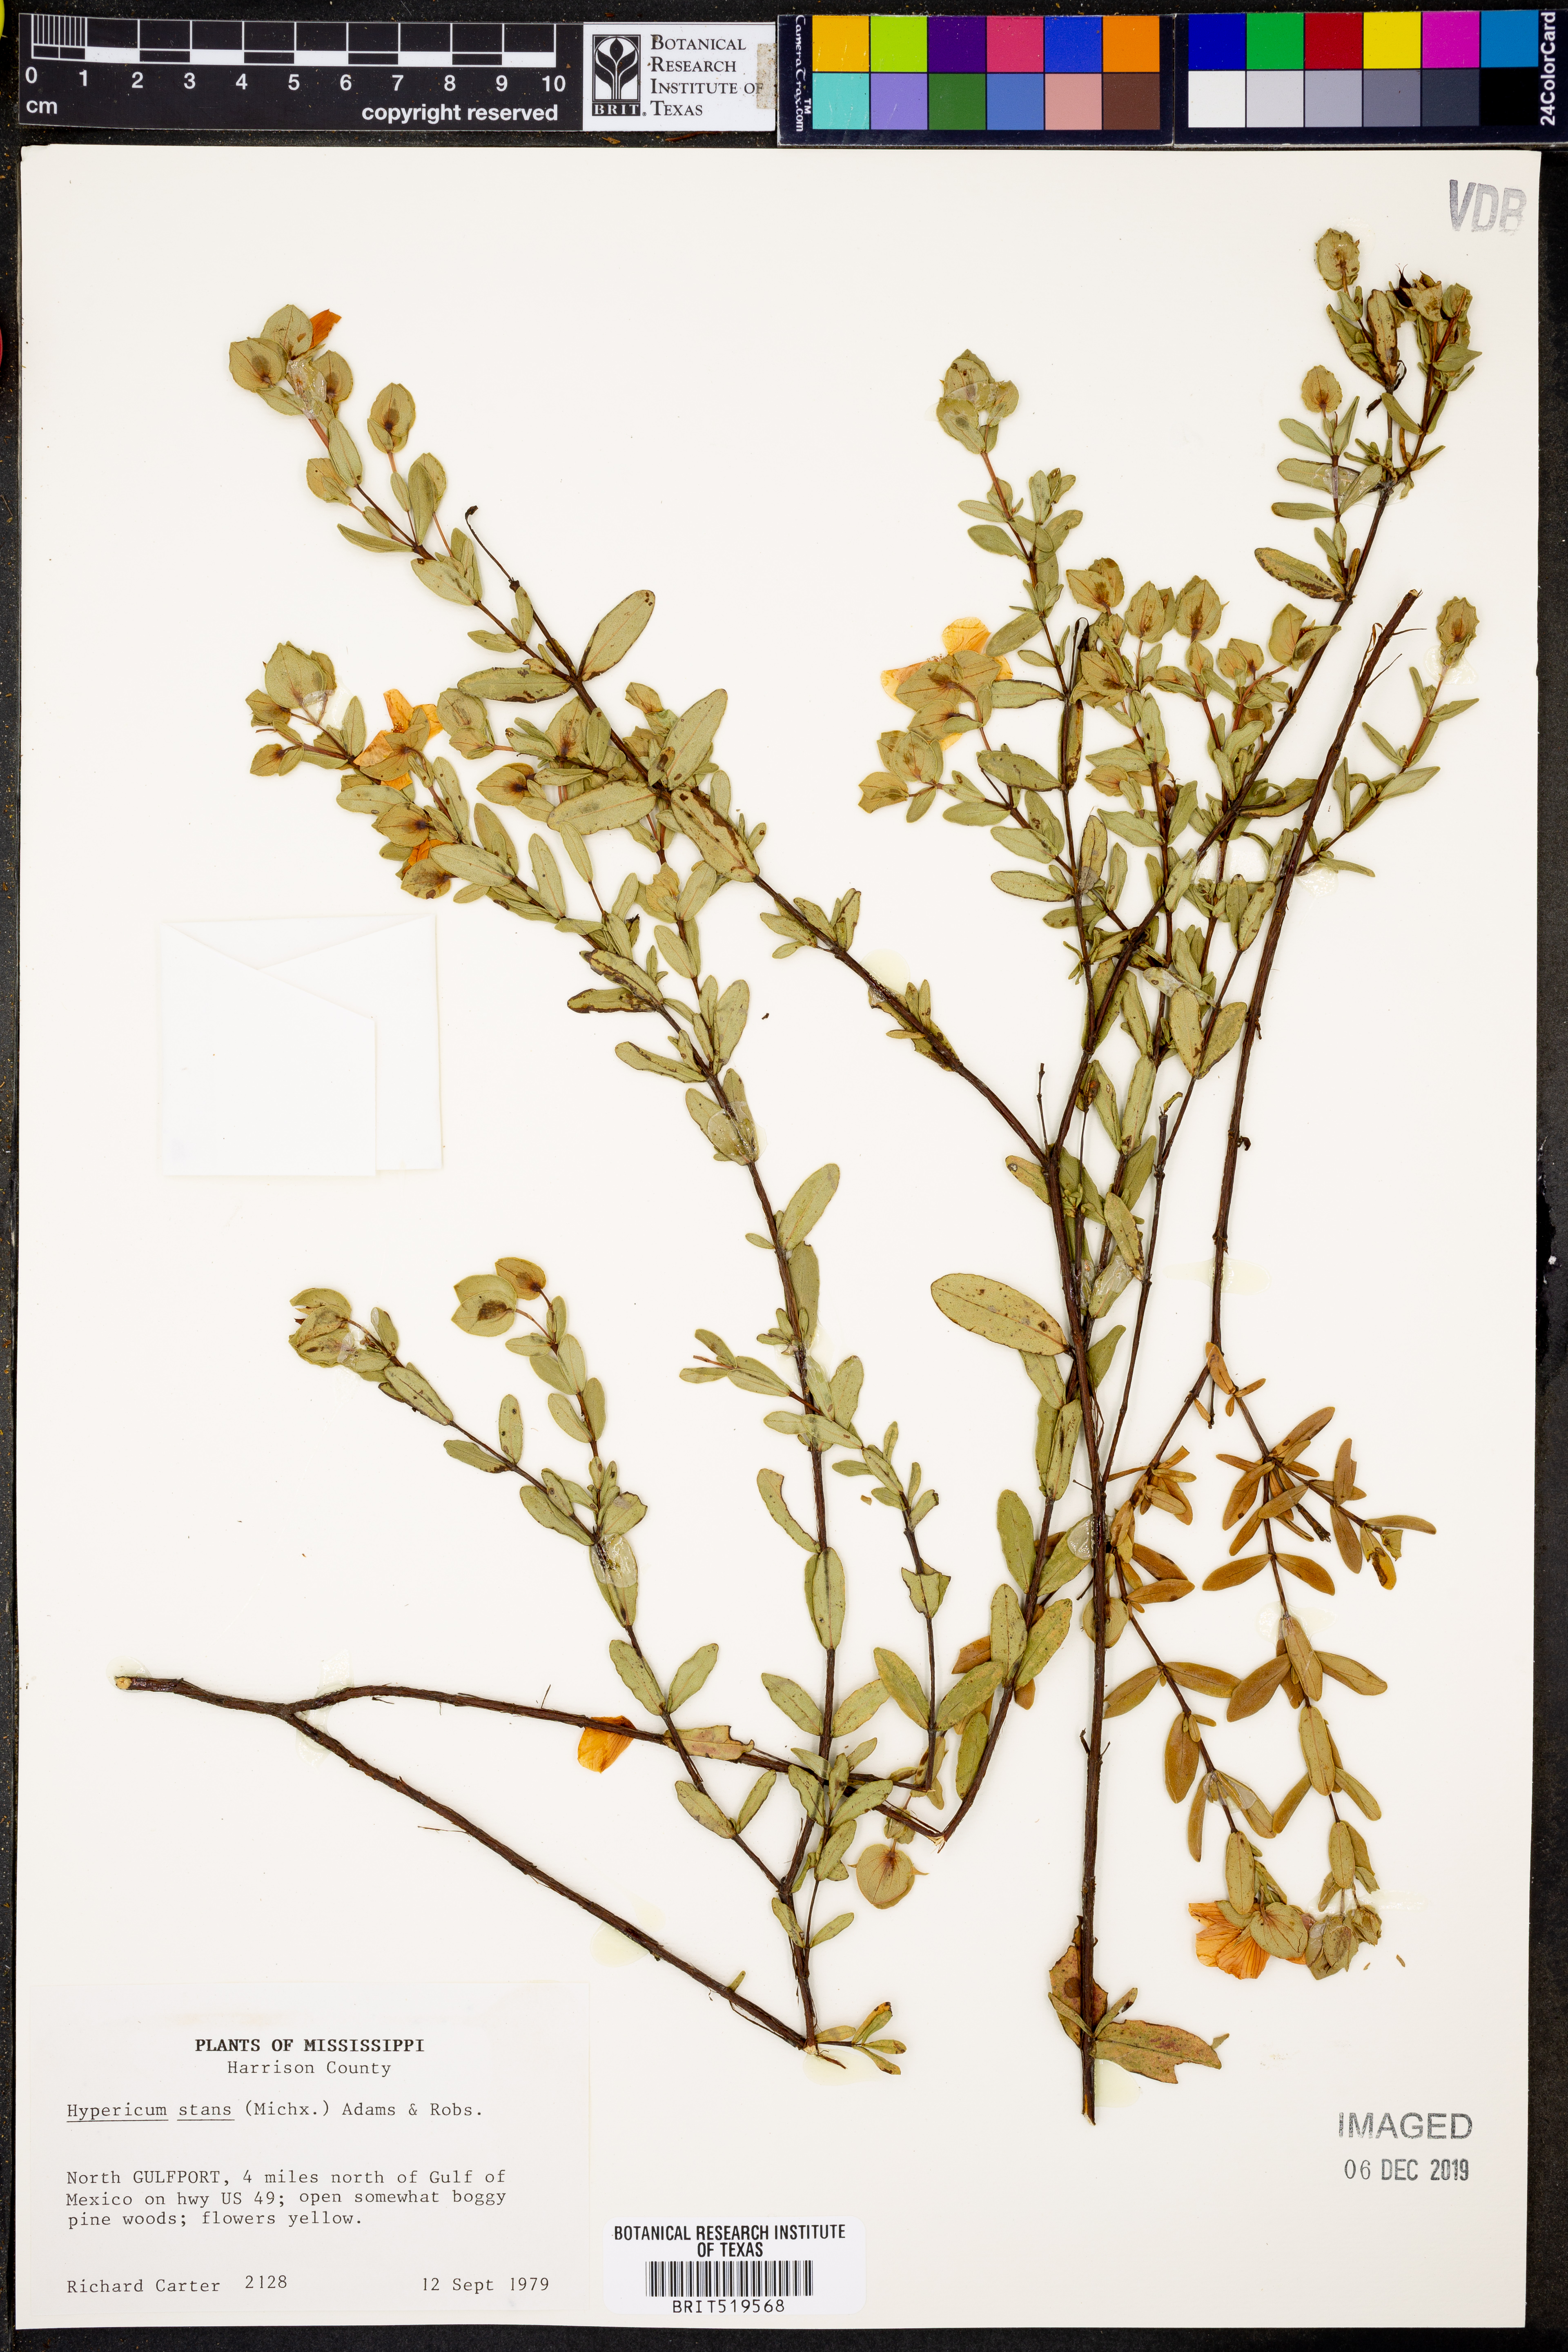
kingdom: Plantae
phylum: Tracheophyta
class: Magnoliopsida
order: Malpighiales
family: Hypericaceae
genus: Hypericum
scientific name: Hypericum crux-andreae
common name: St.-peter's-wort
